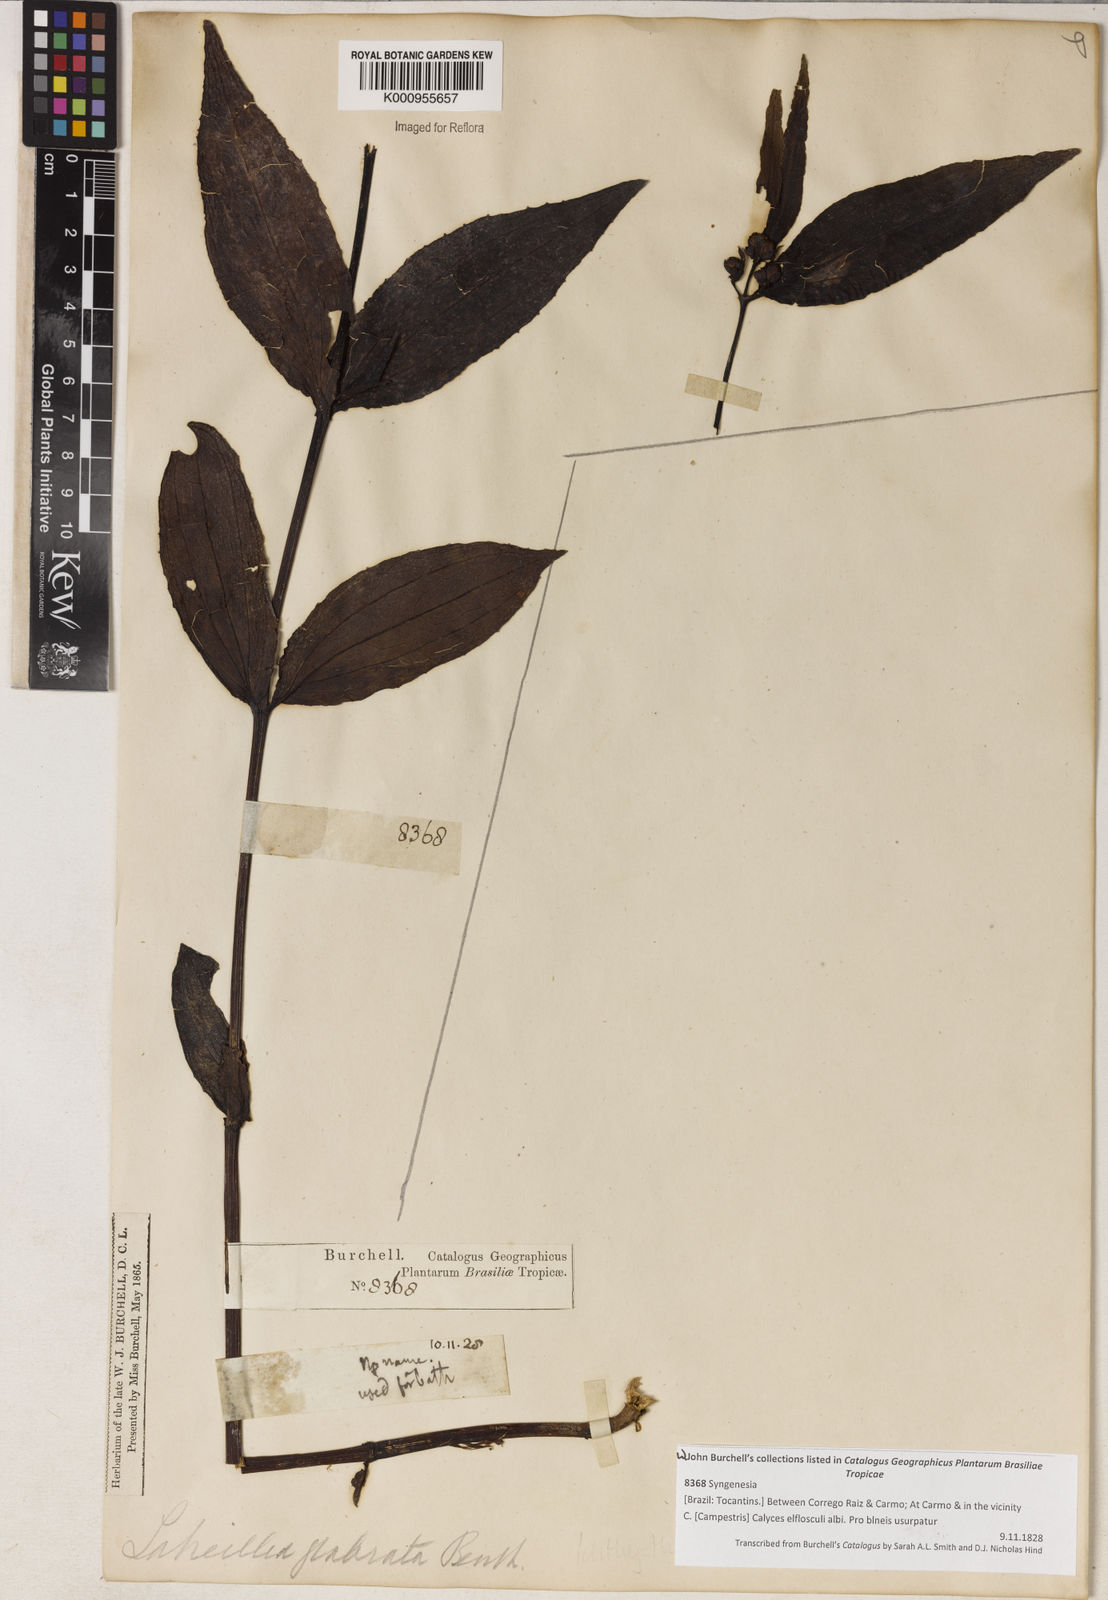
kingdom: Plantae
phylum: Tracheophyta
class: Magnoliopsida
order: Asterales
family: Asteraceae
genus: Ichthyothere
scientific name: Ichthyothere
